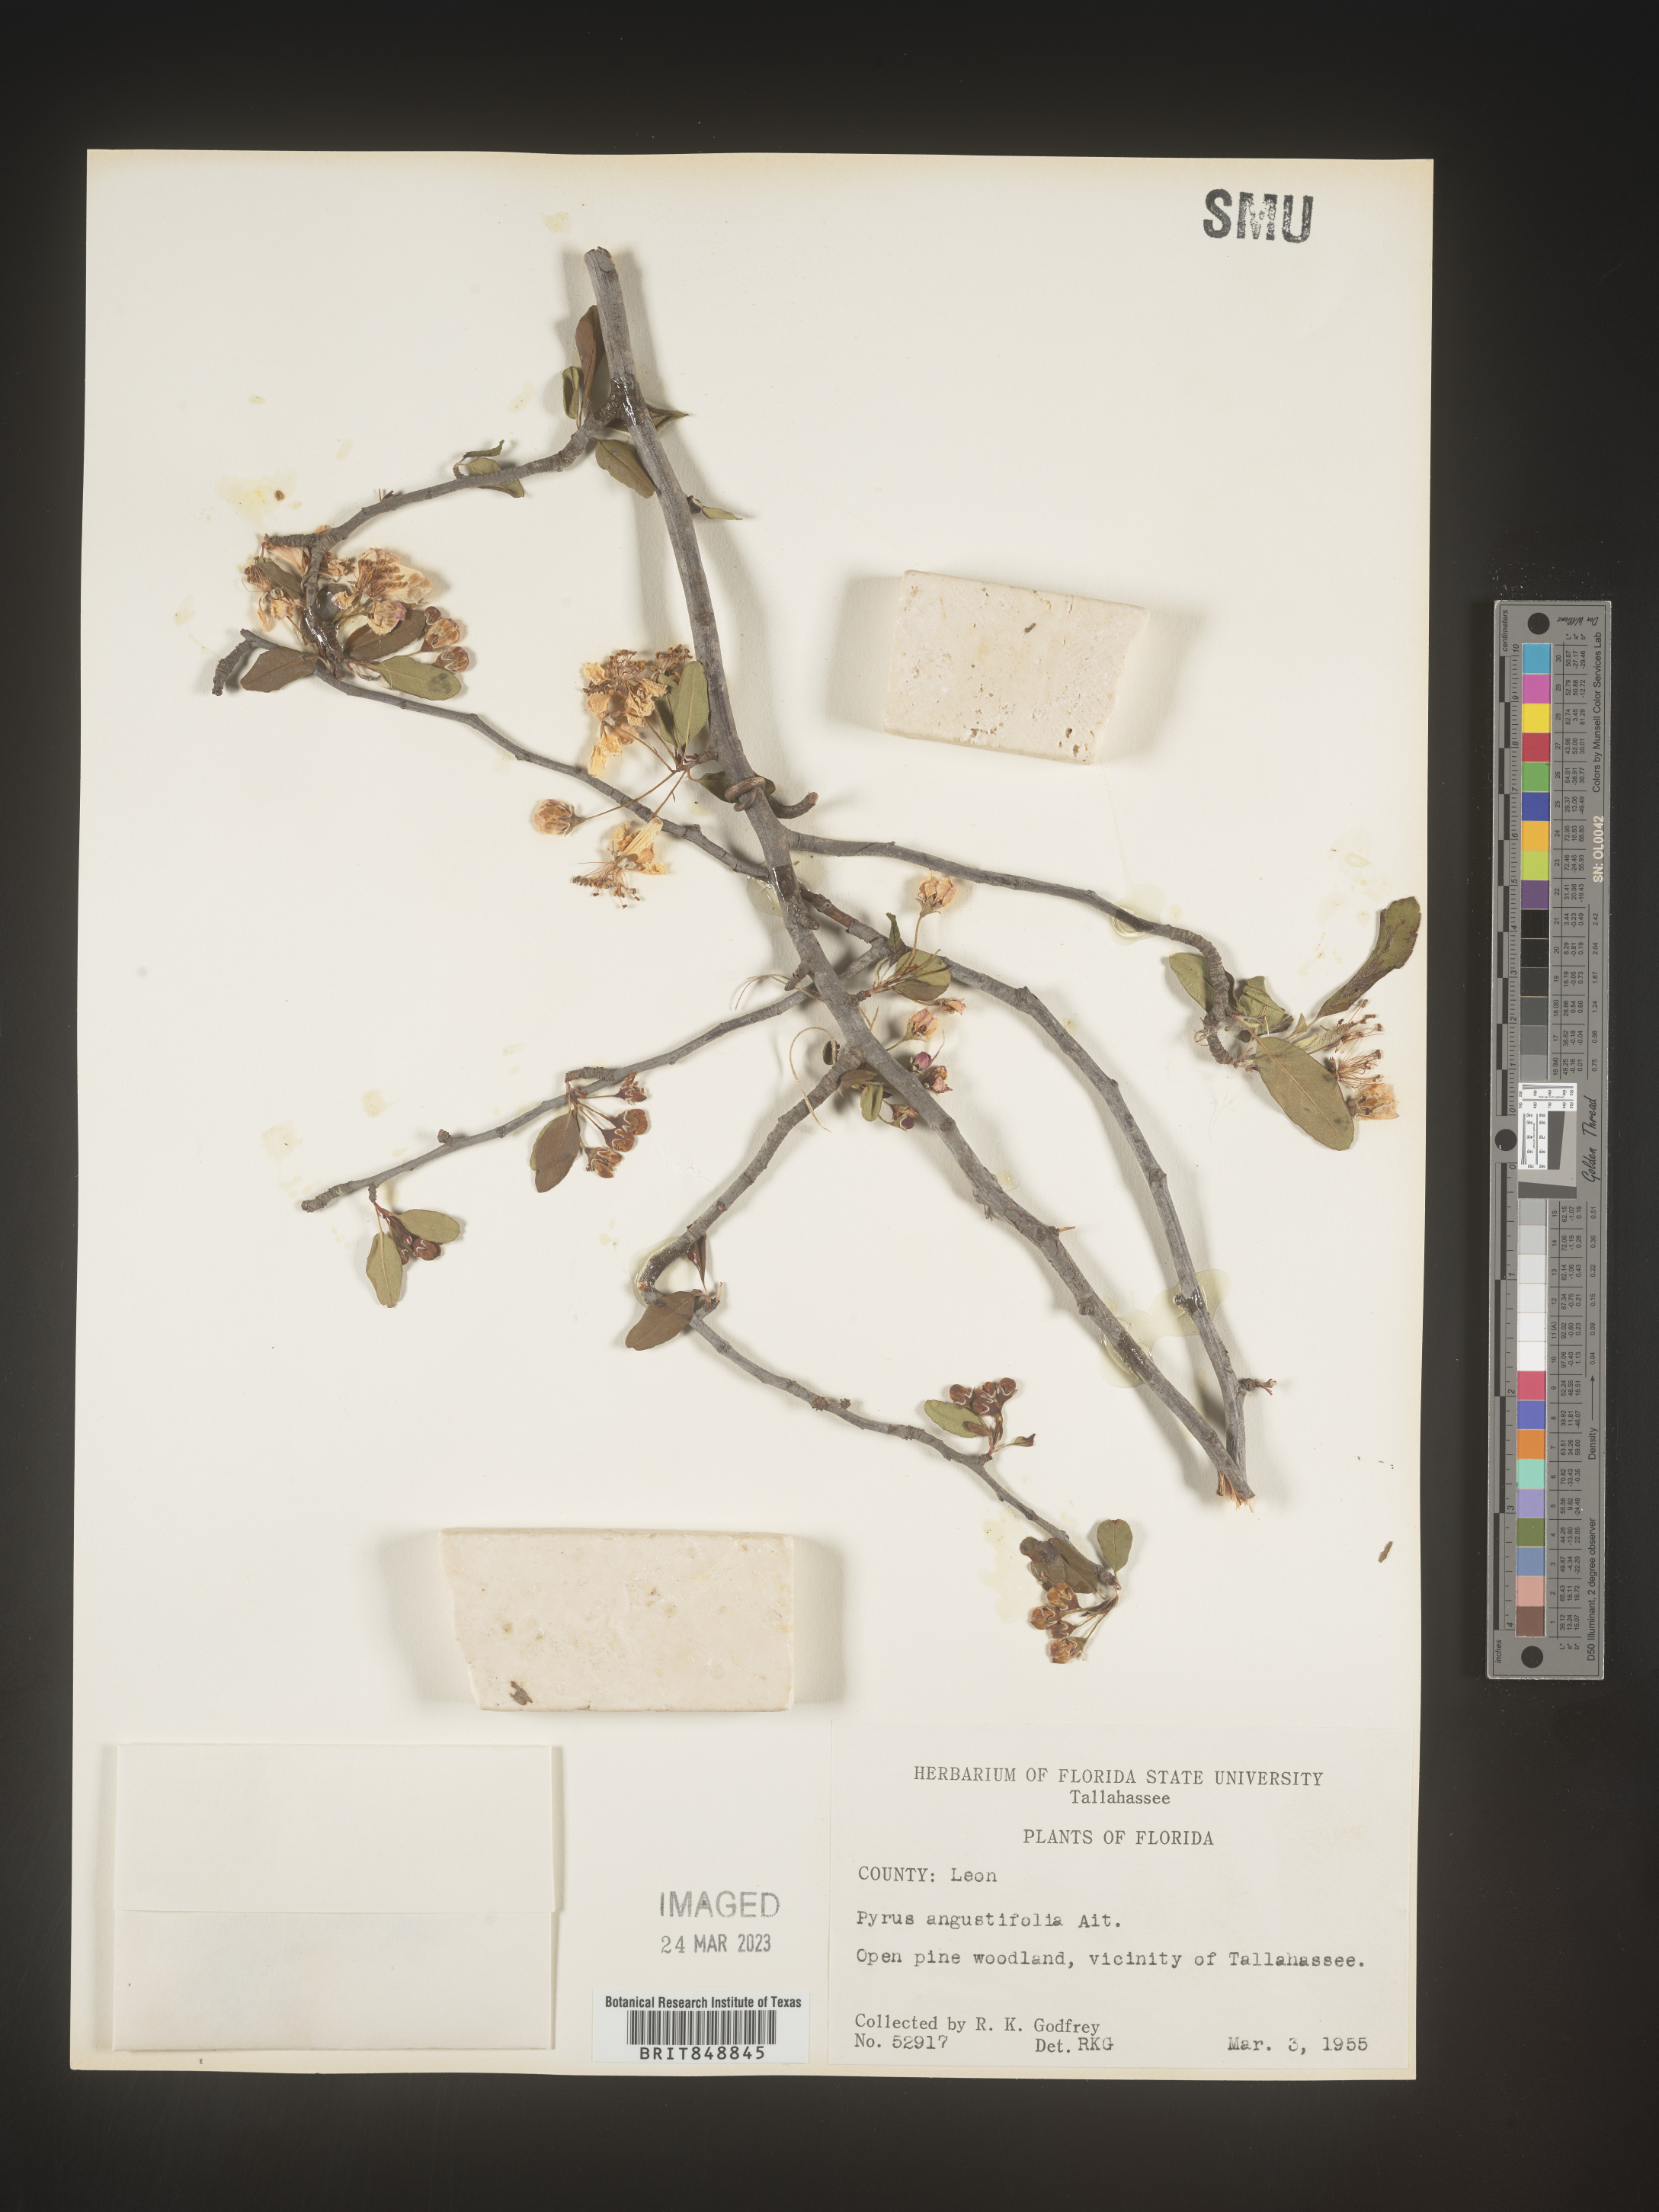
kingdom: Plantae
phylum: Tracheophyta
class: Magnoliopsida
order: Rosales
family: Rosaceae
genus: Malus
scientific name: Malus angustifolia
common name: Southern crab apple
